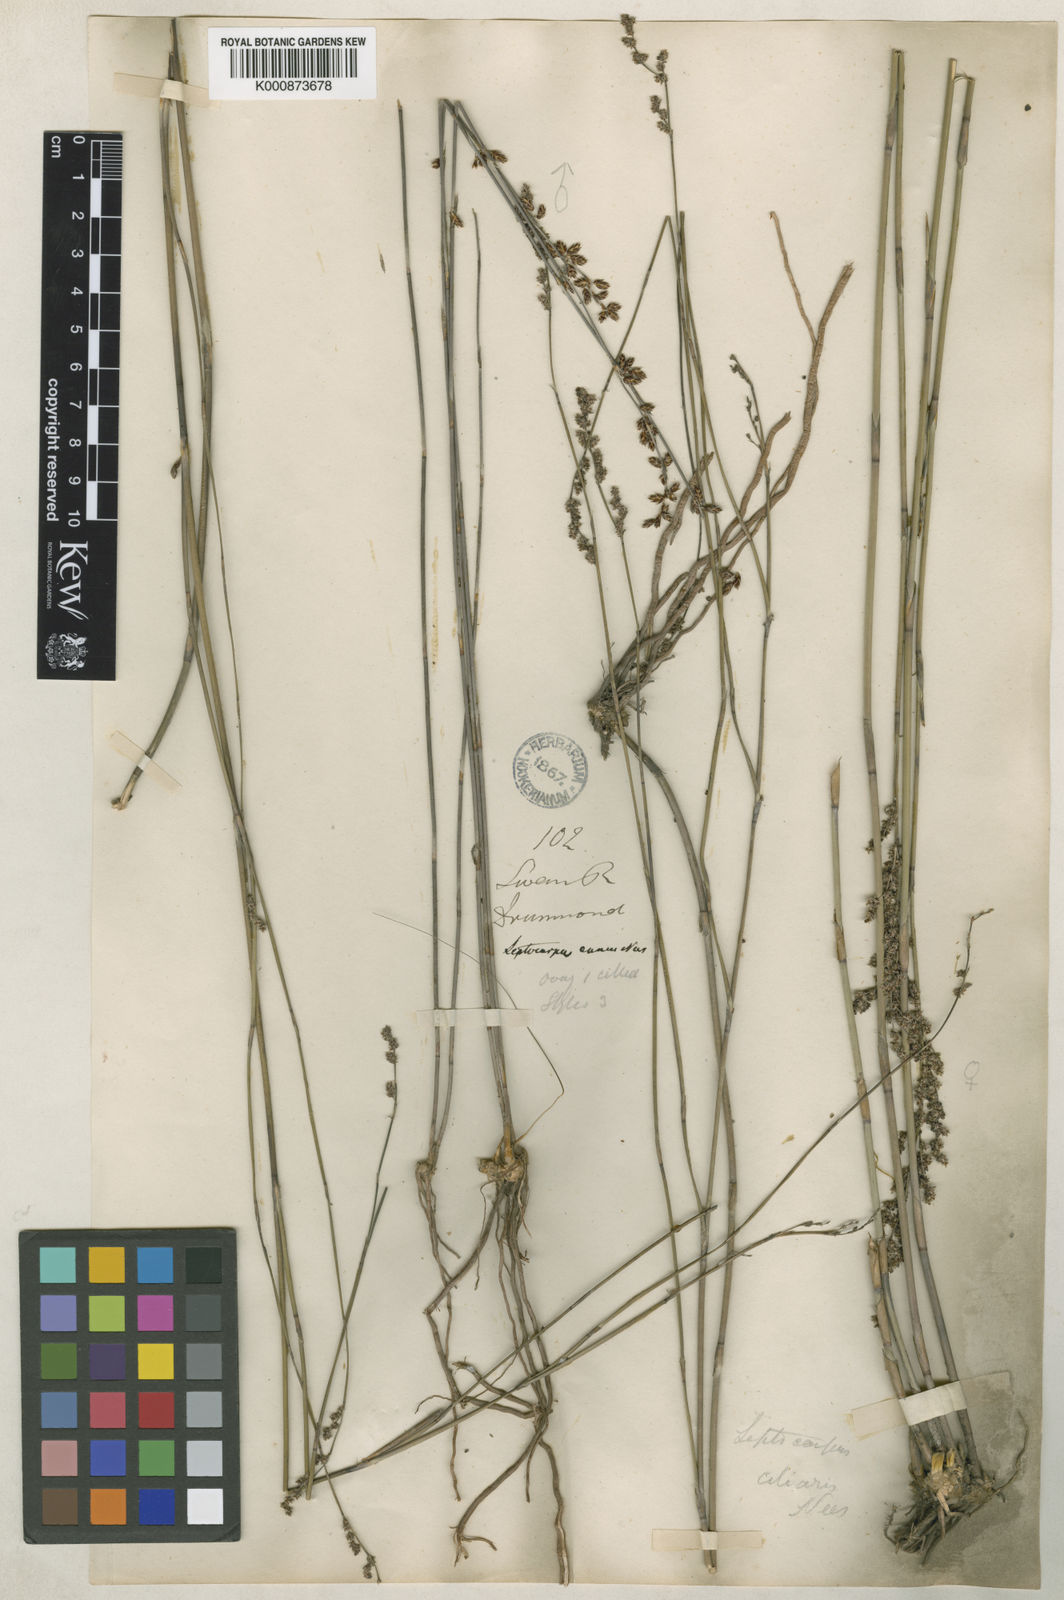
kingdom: Plantae
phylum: Tracheophyta
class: Liliopsida
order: Poales
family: Restionaceae
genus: Leptocarpus
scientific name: Leptocarpus canus
